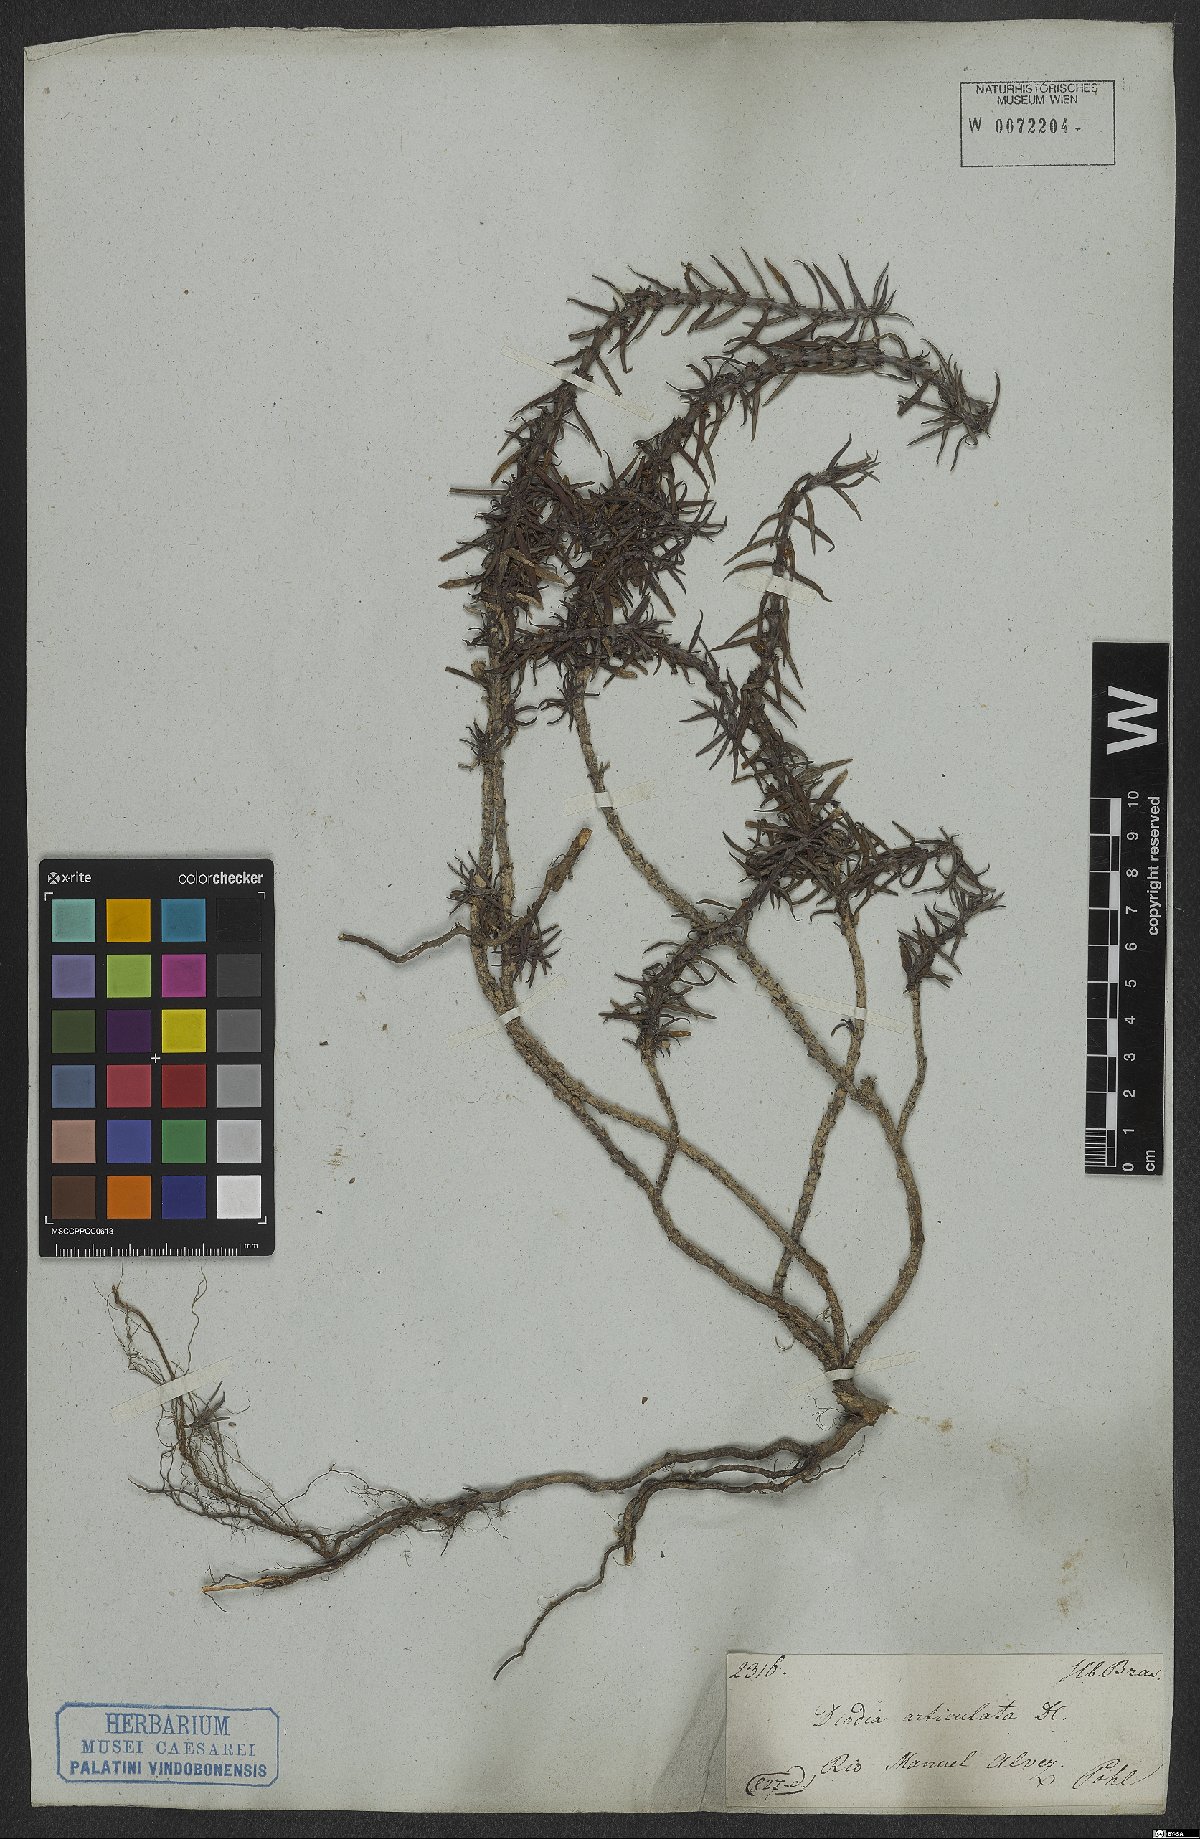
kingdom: Plantae
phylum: Tracheophyta
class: Magnoliopsida
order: Gentianales
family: Rubiaceae
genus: Spermacoce
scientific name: Spermacoce hyssopifolia
